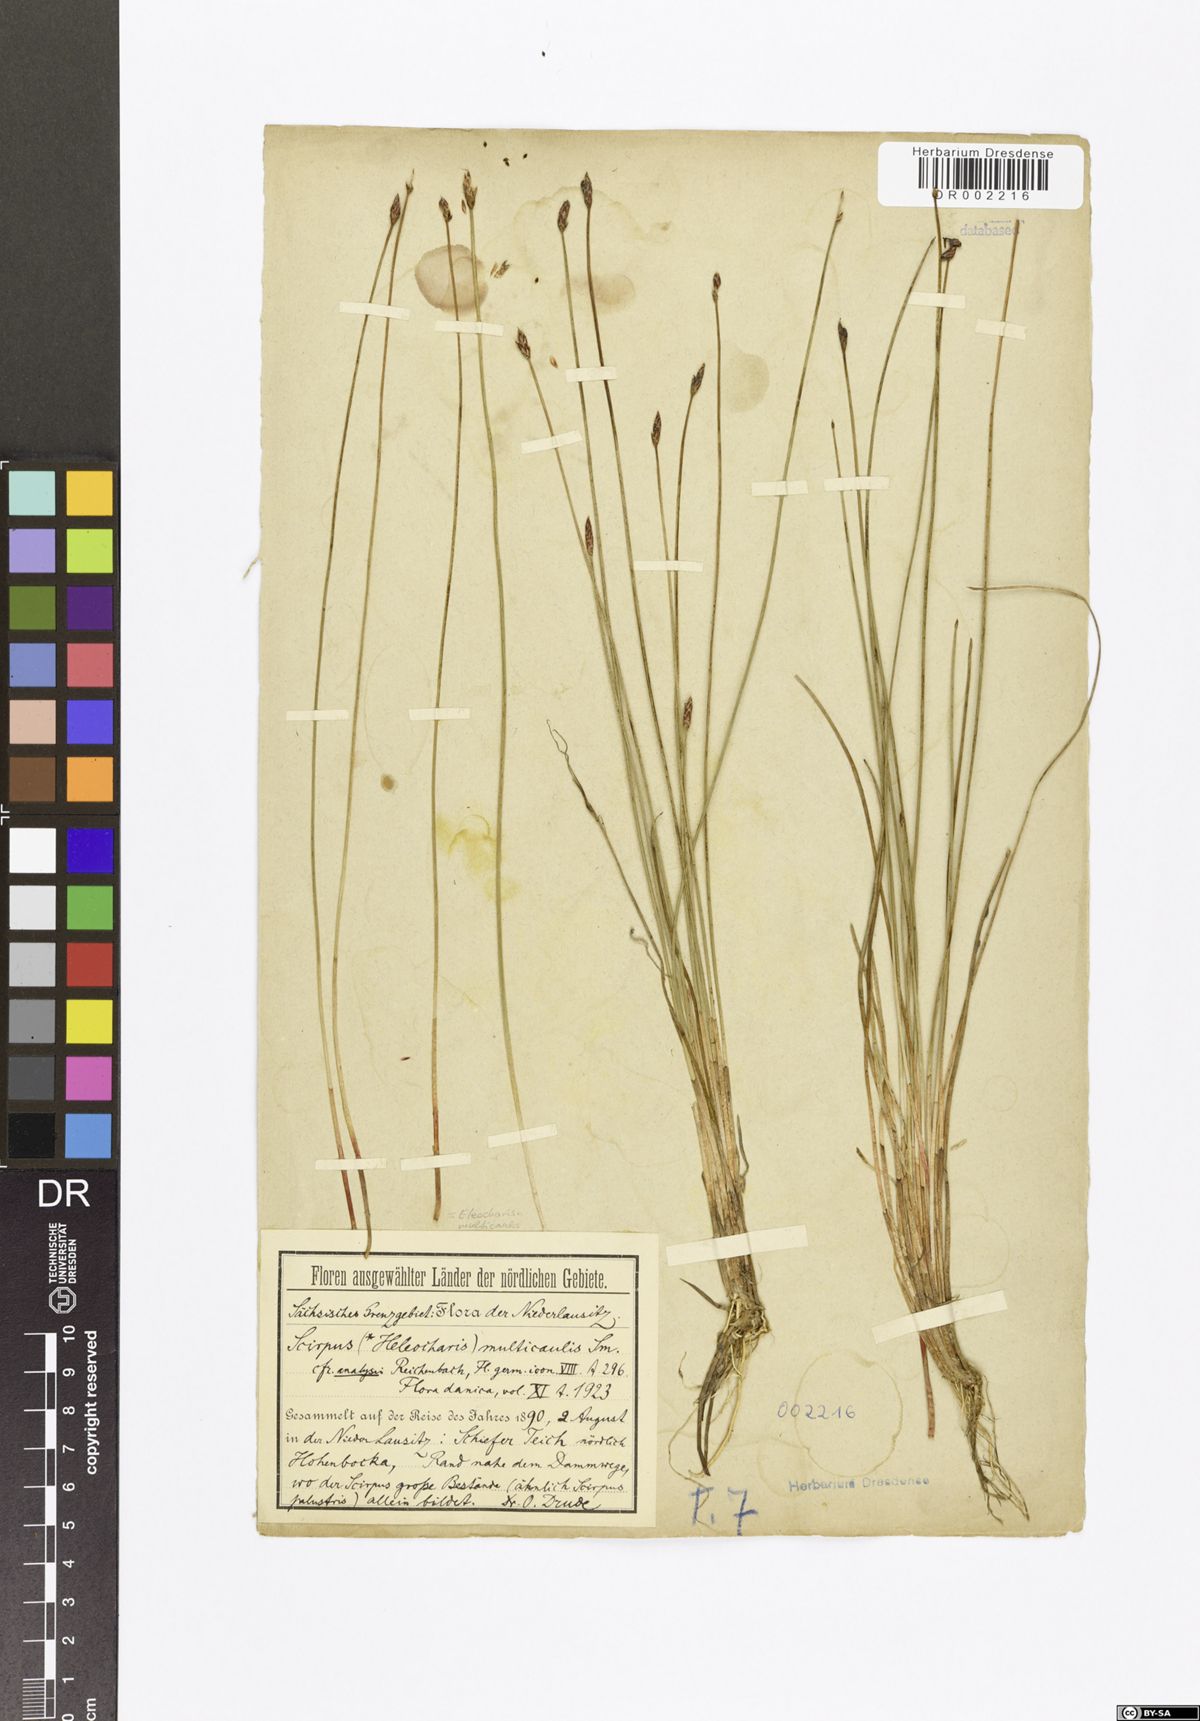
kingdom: Plantae
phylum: Tracheophyta
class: Liliopsida
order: Poales
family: Cyperaceae
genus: Eleocharis
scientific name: Eleocharis multicaulis
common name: Many-stalked spike-rush
